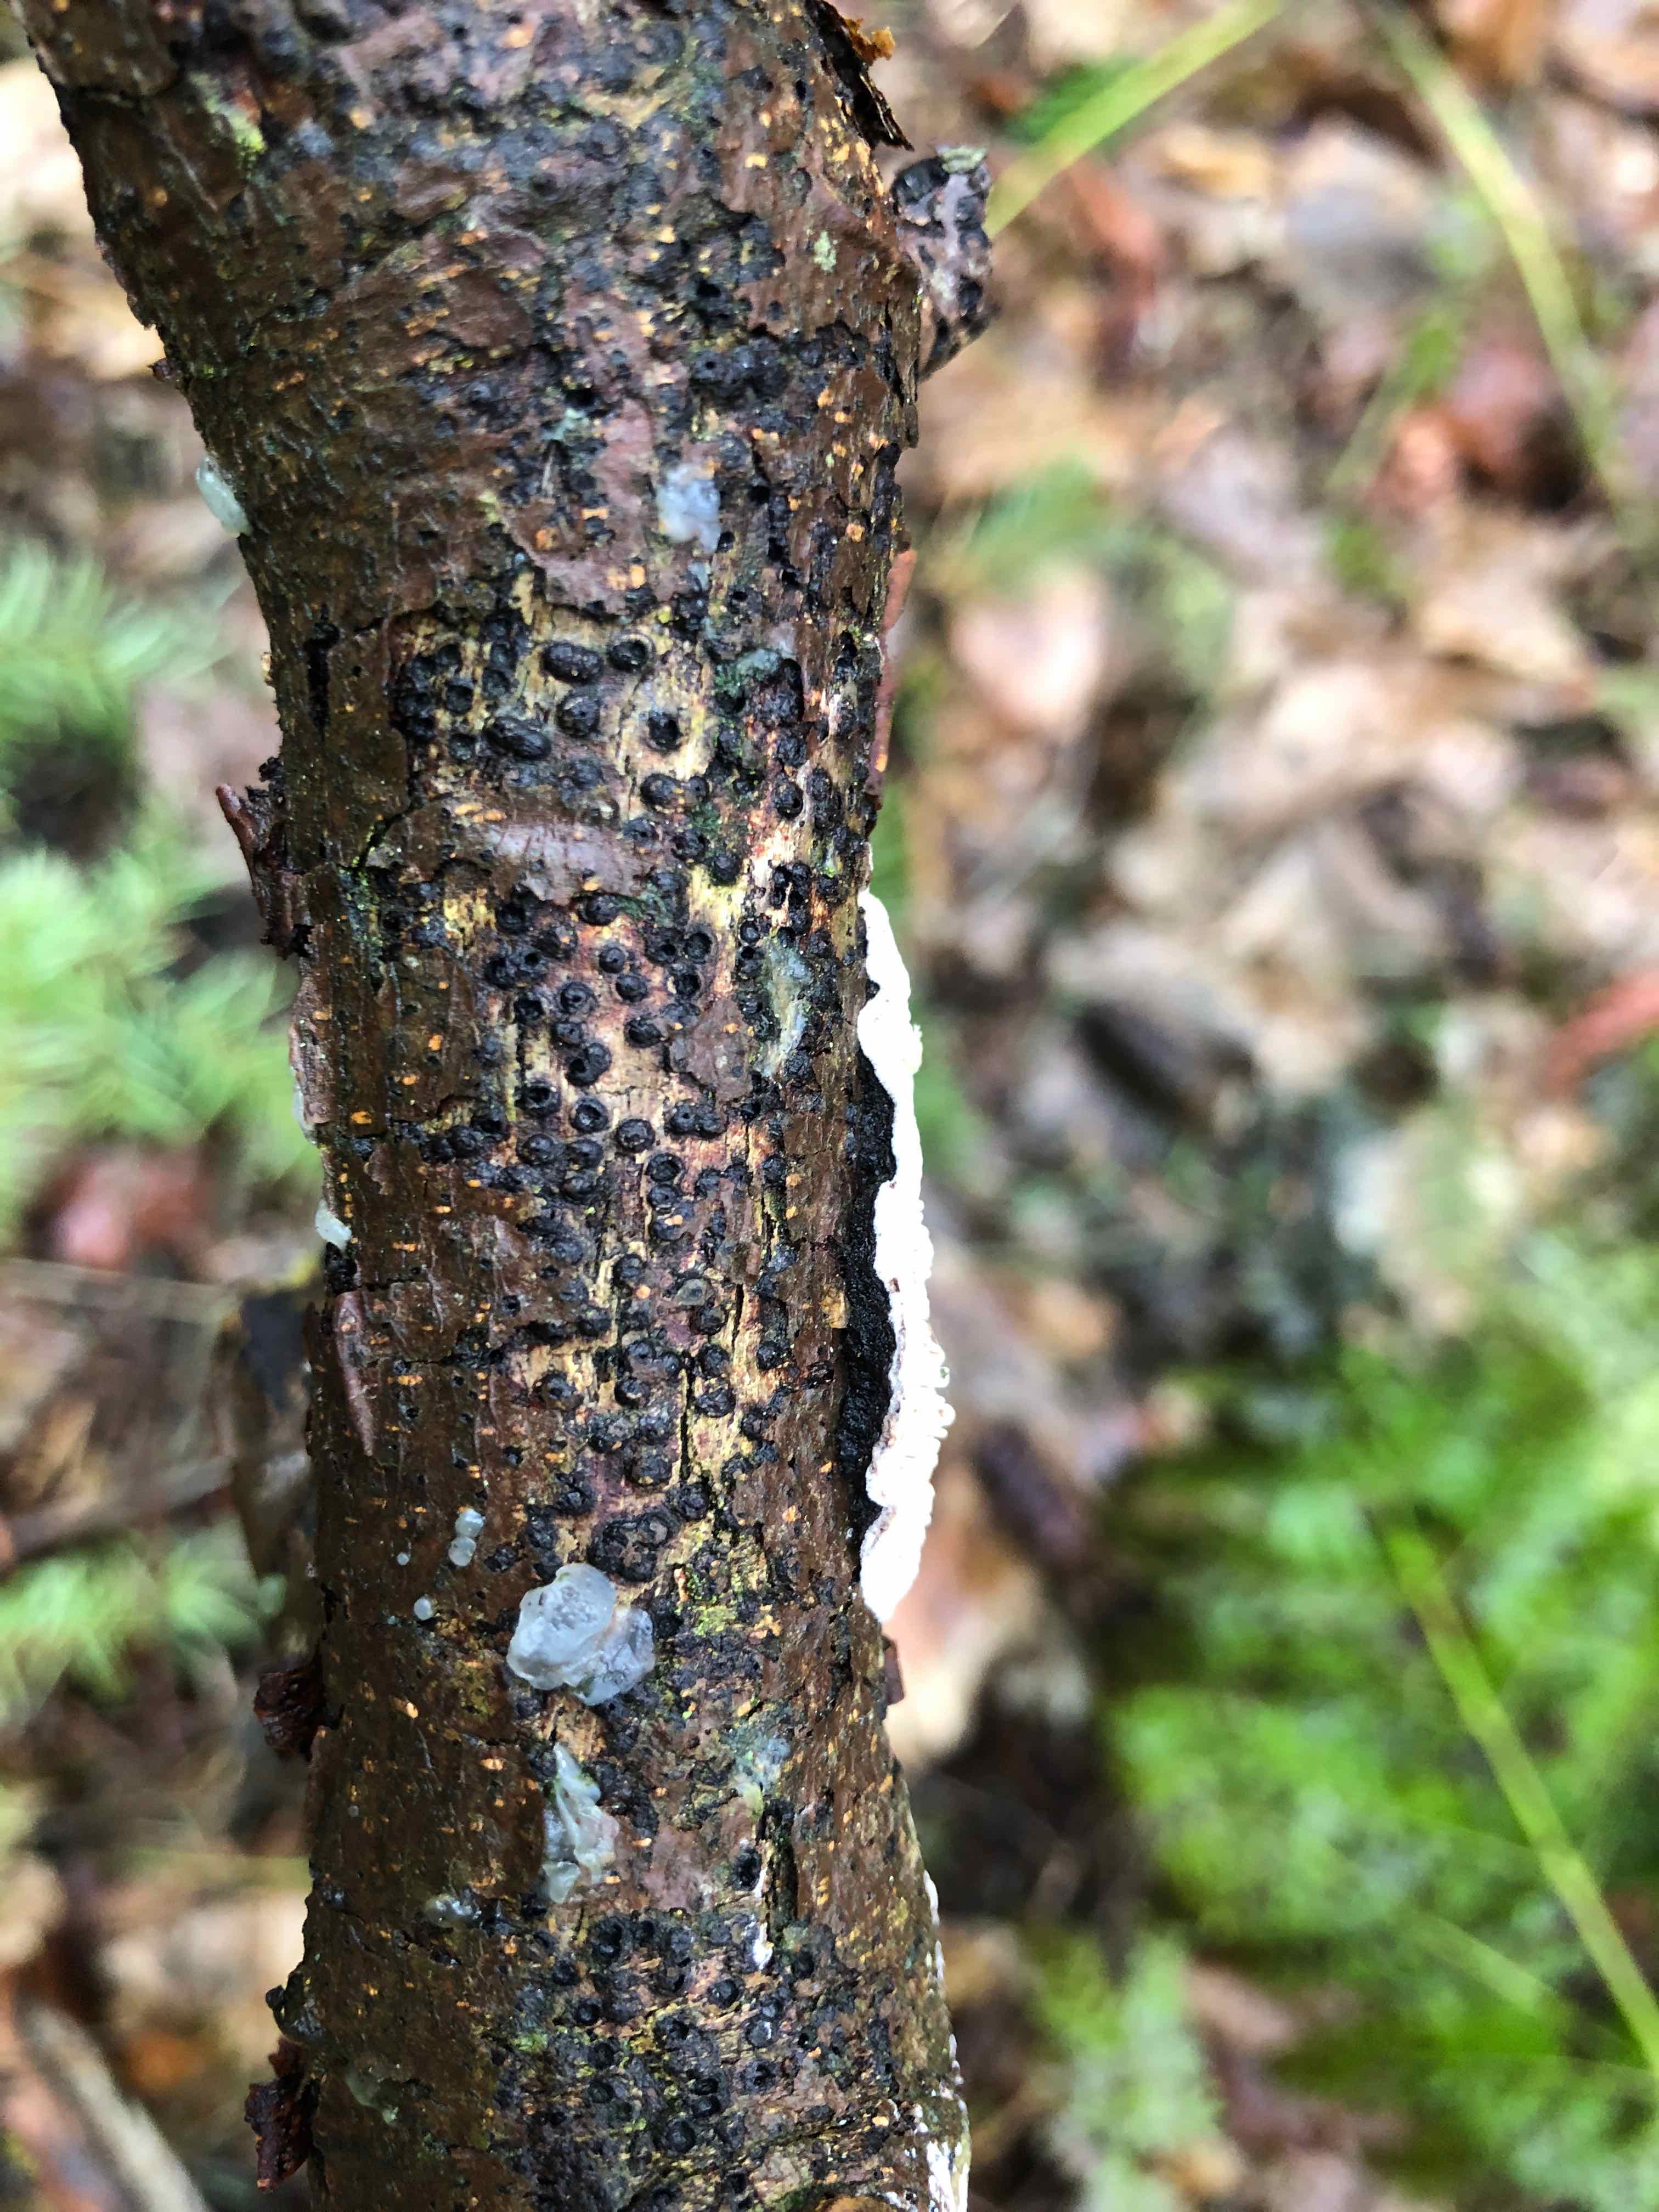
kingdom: Fungi
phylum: Basidiomycota
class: Agaricomycetes
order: Polyporales
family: Polyporaceae
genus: Podofomes
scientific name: Podofomes mollis
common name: blød begporesvamp
